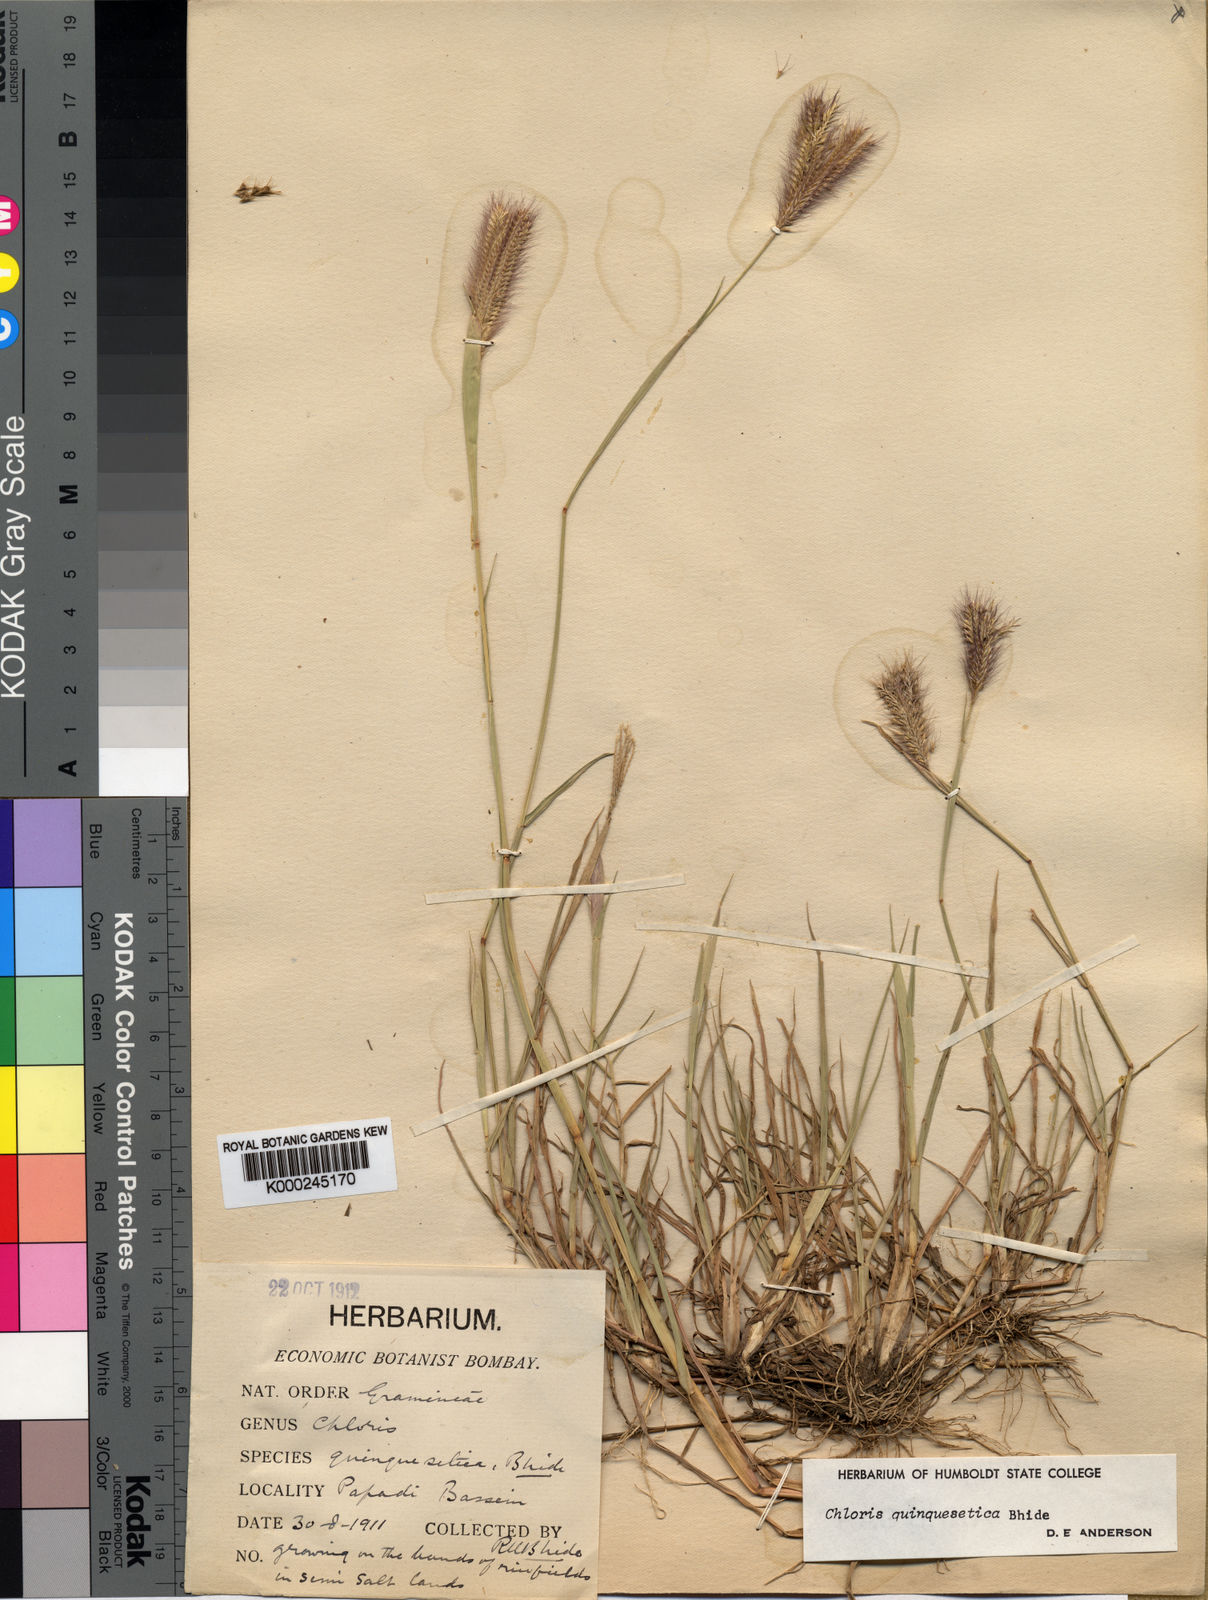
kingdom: Plantae
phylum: Tracheophyta
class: Liliopsida
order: Poales
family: Poaceae
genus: Chloris
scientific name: Chloris quinquesetica
